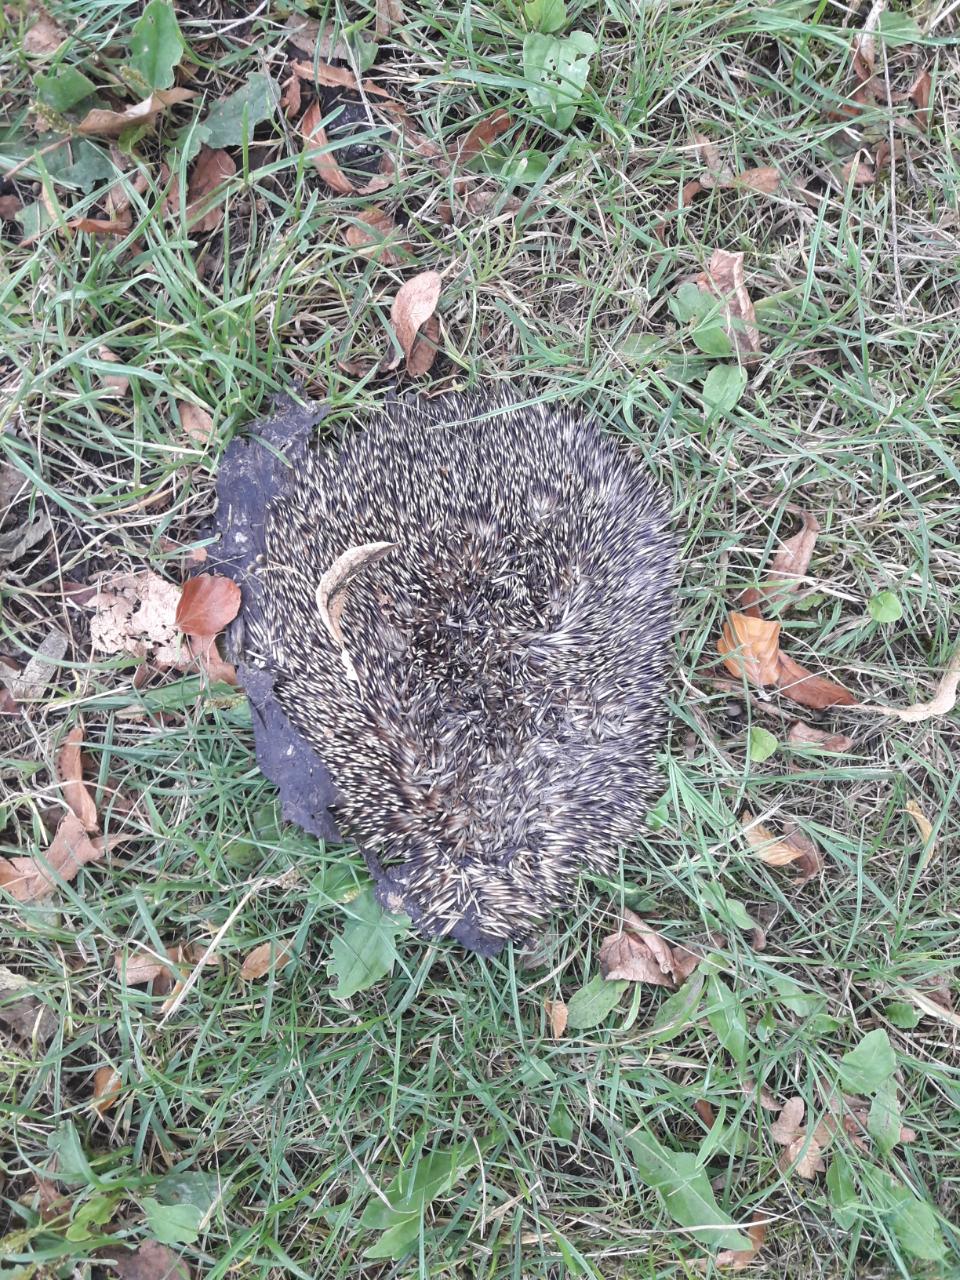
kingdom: Animalia
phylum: Chordata
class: Mammalia
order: Erinaceomorpha
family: Erinaceidae
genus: Erinaceus
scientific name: Erinaceus
